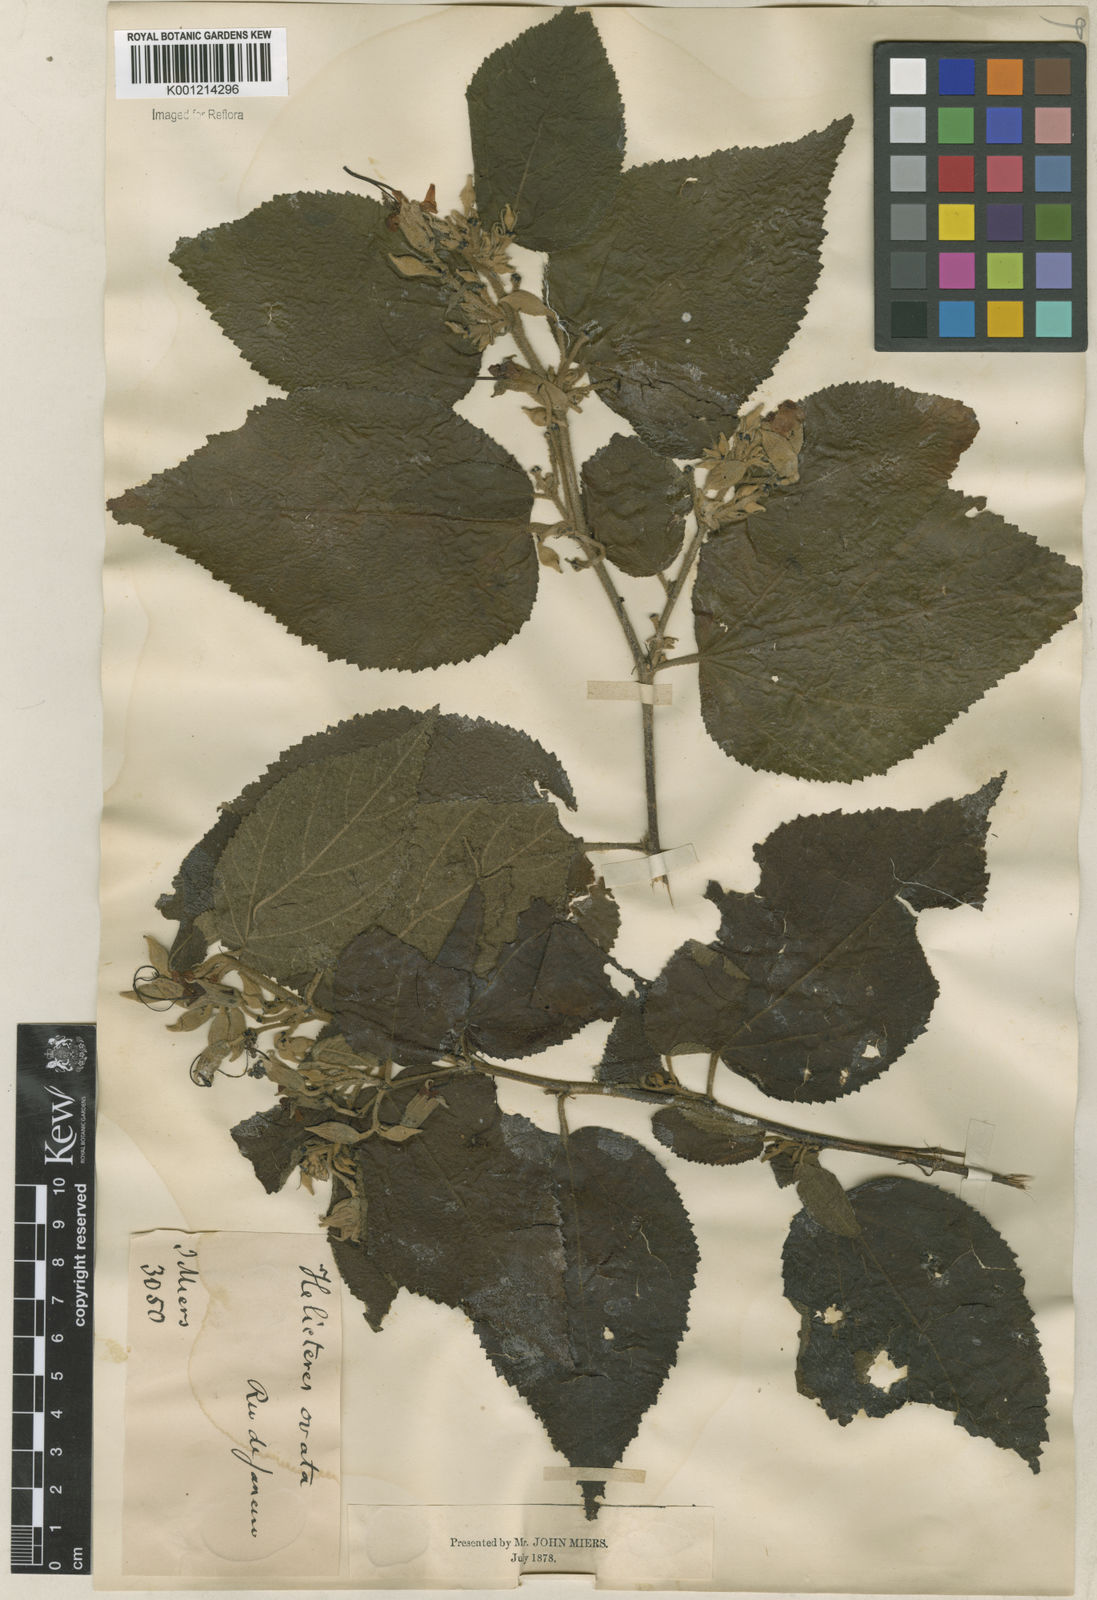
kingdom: Plantae
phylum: Tracheophyta
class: Magnoliopsida
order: Malvales
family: Malvaceae
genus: Helicteres
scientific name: Helicteres ovata
